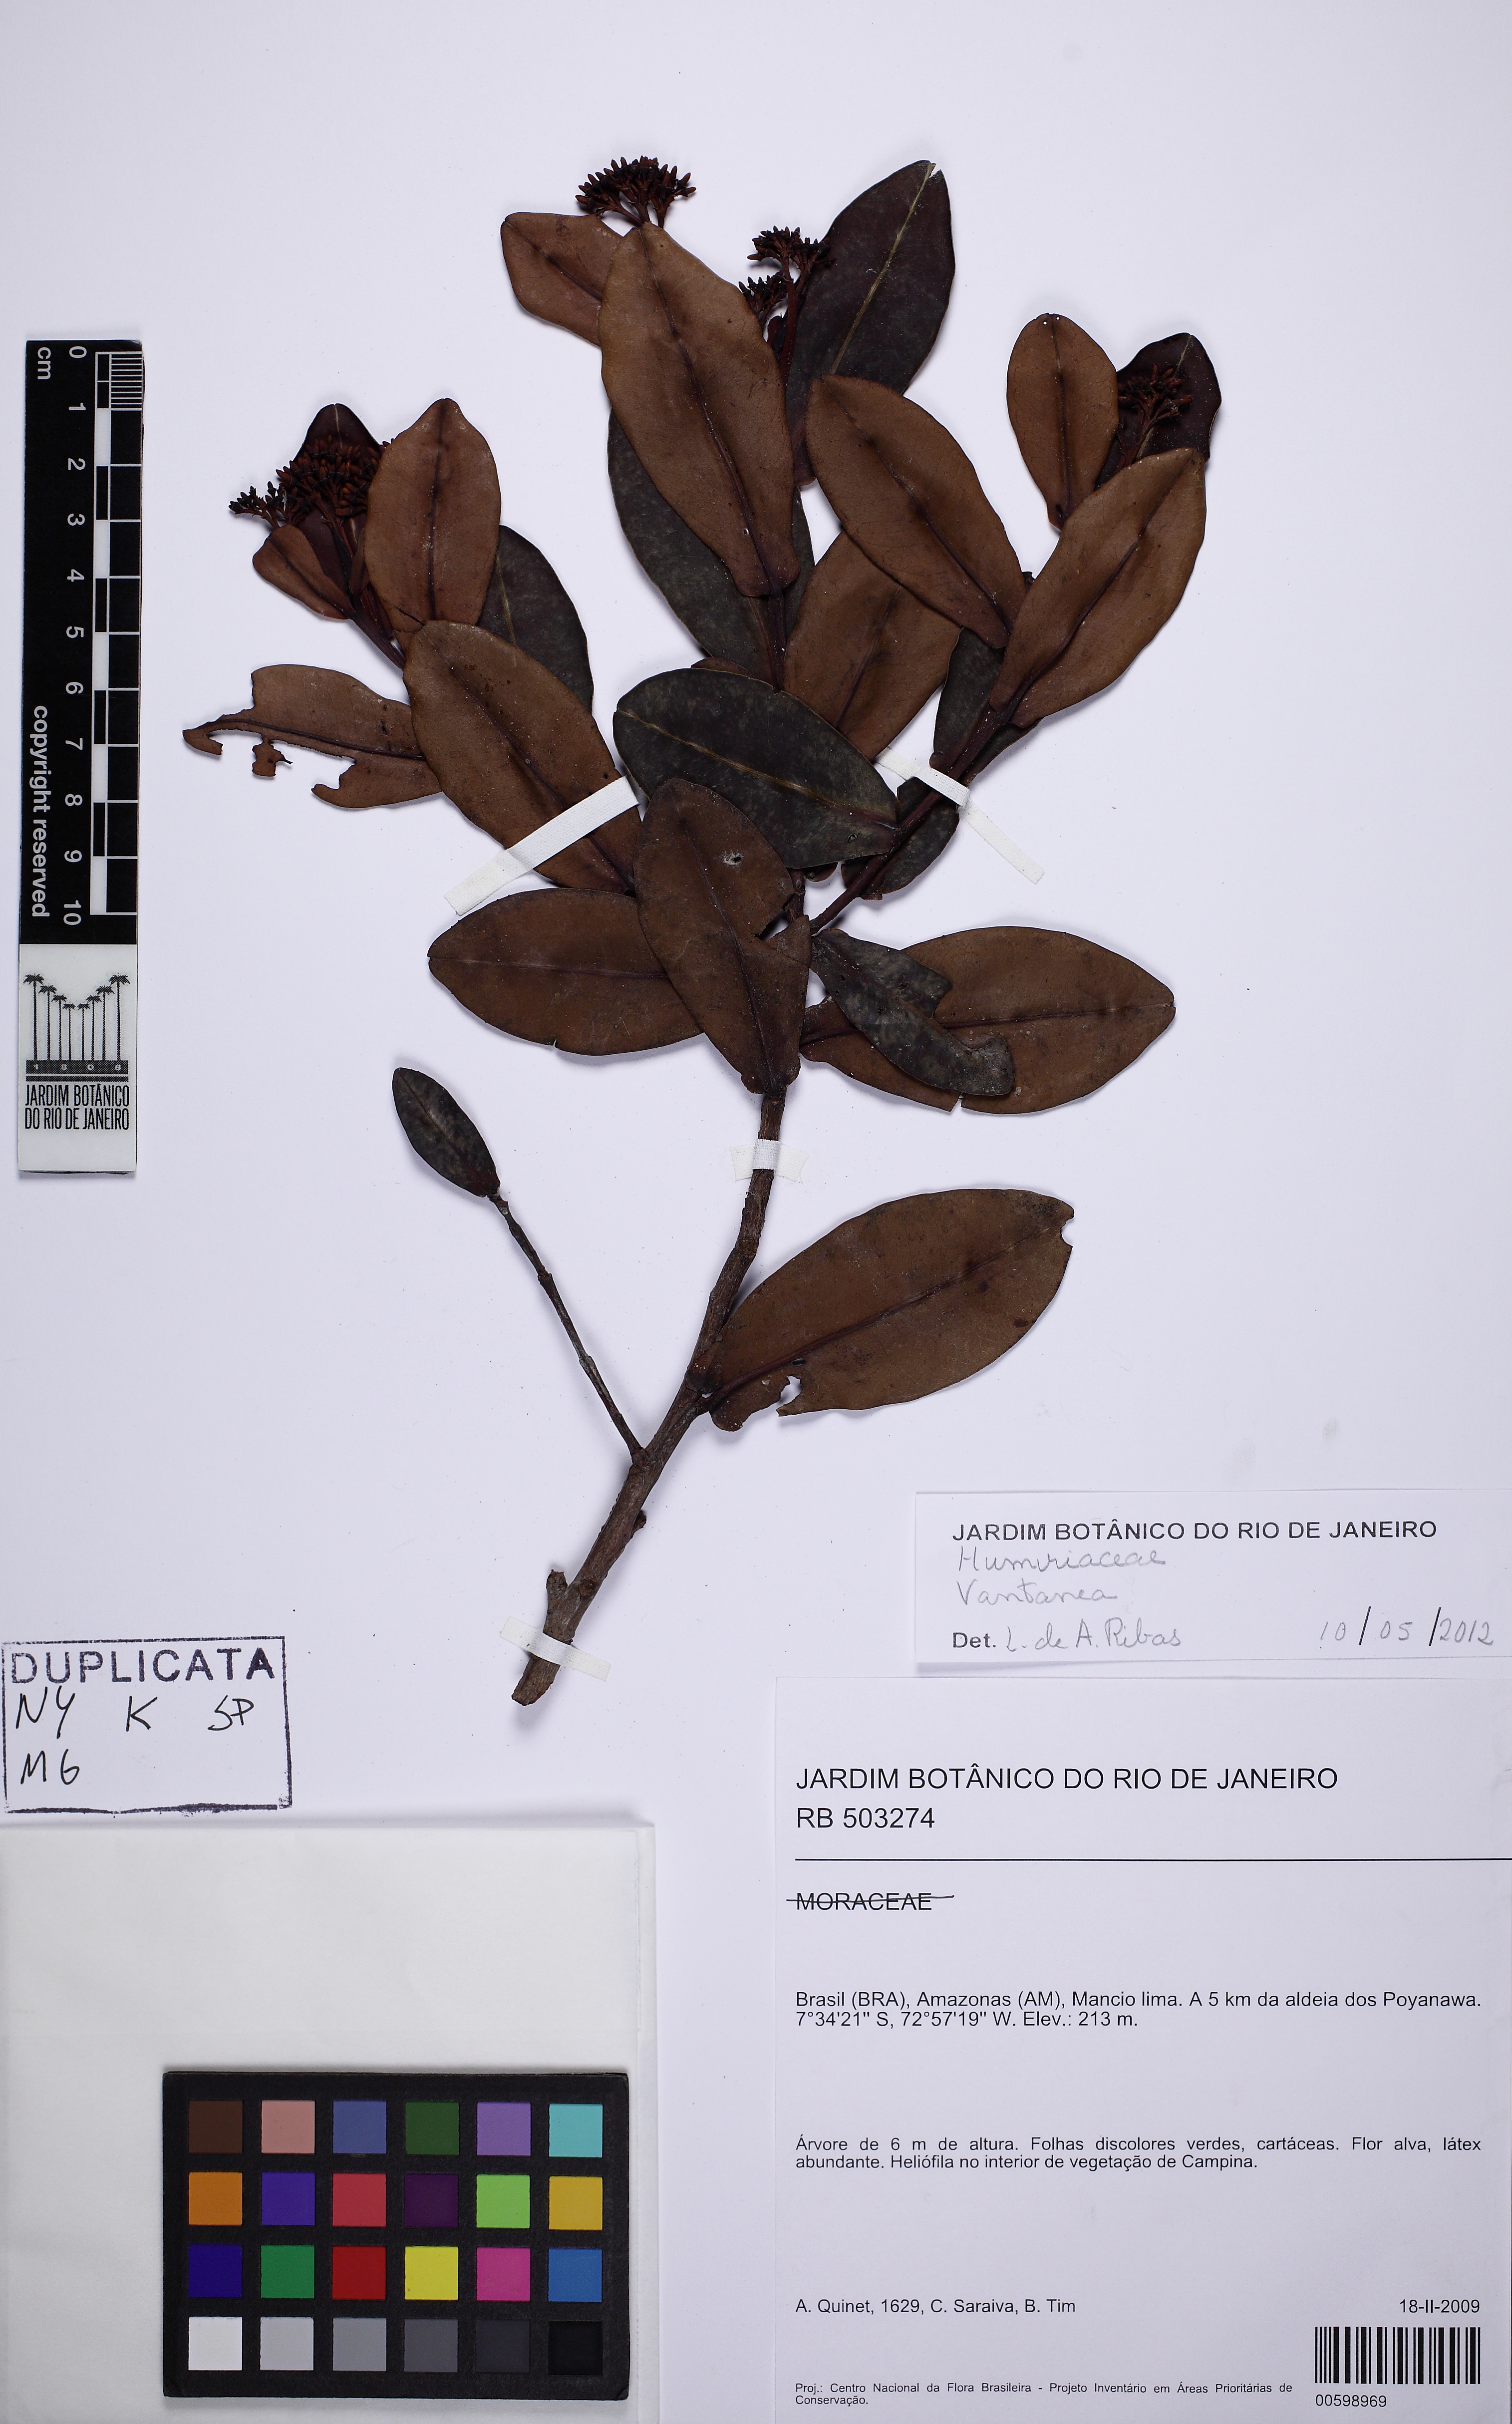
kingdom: Plantae
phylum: Tracheophyta
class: Magnoliopsida
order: Malpighiales
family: Humiriaceae
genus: Humiria
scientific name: Humiria balsamifera
